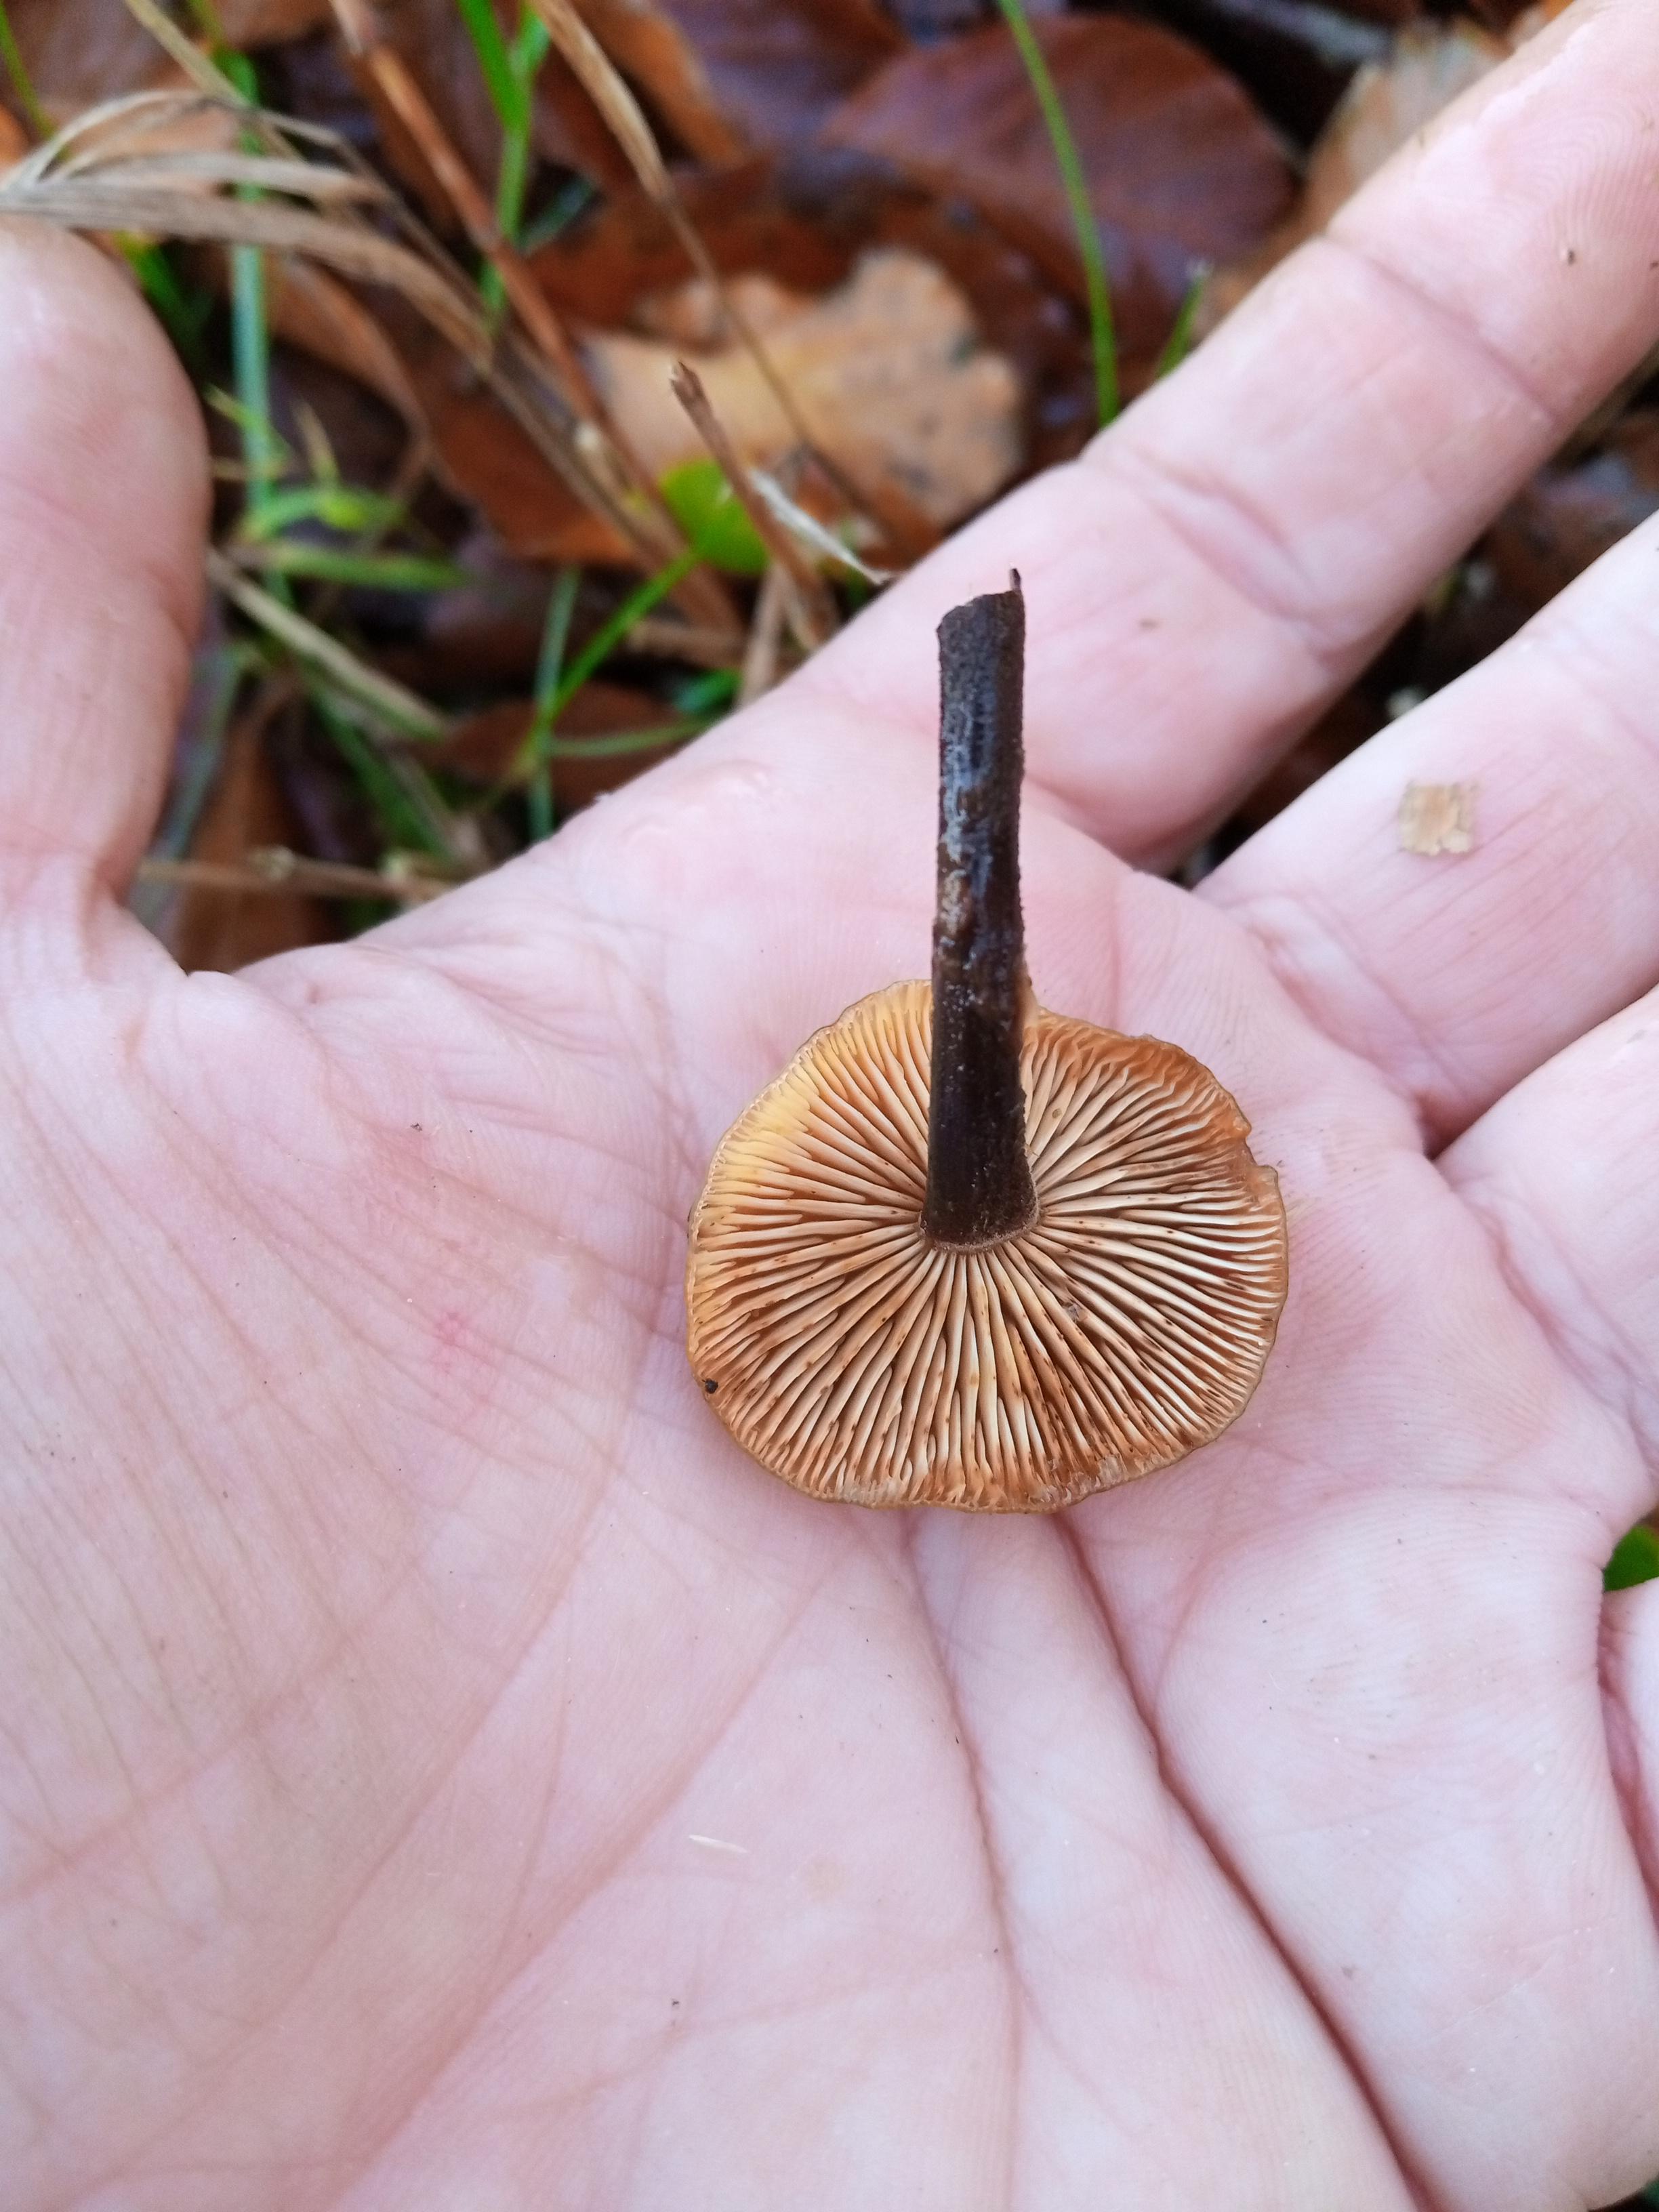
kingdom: Fungi
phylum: Basidiomycota
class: Agaricomycetes
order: Agaricales
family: Physalacriaceae
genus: Flammulina
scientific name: Flammulina velutipes
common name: gul fløjlsfod
